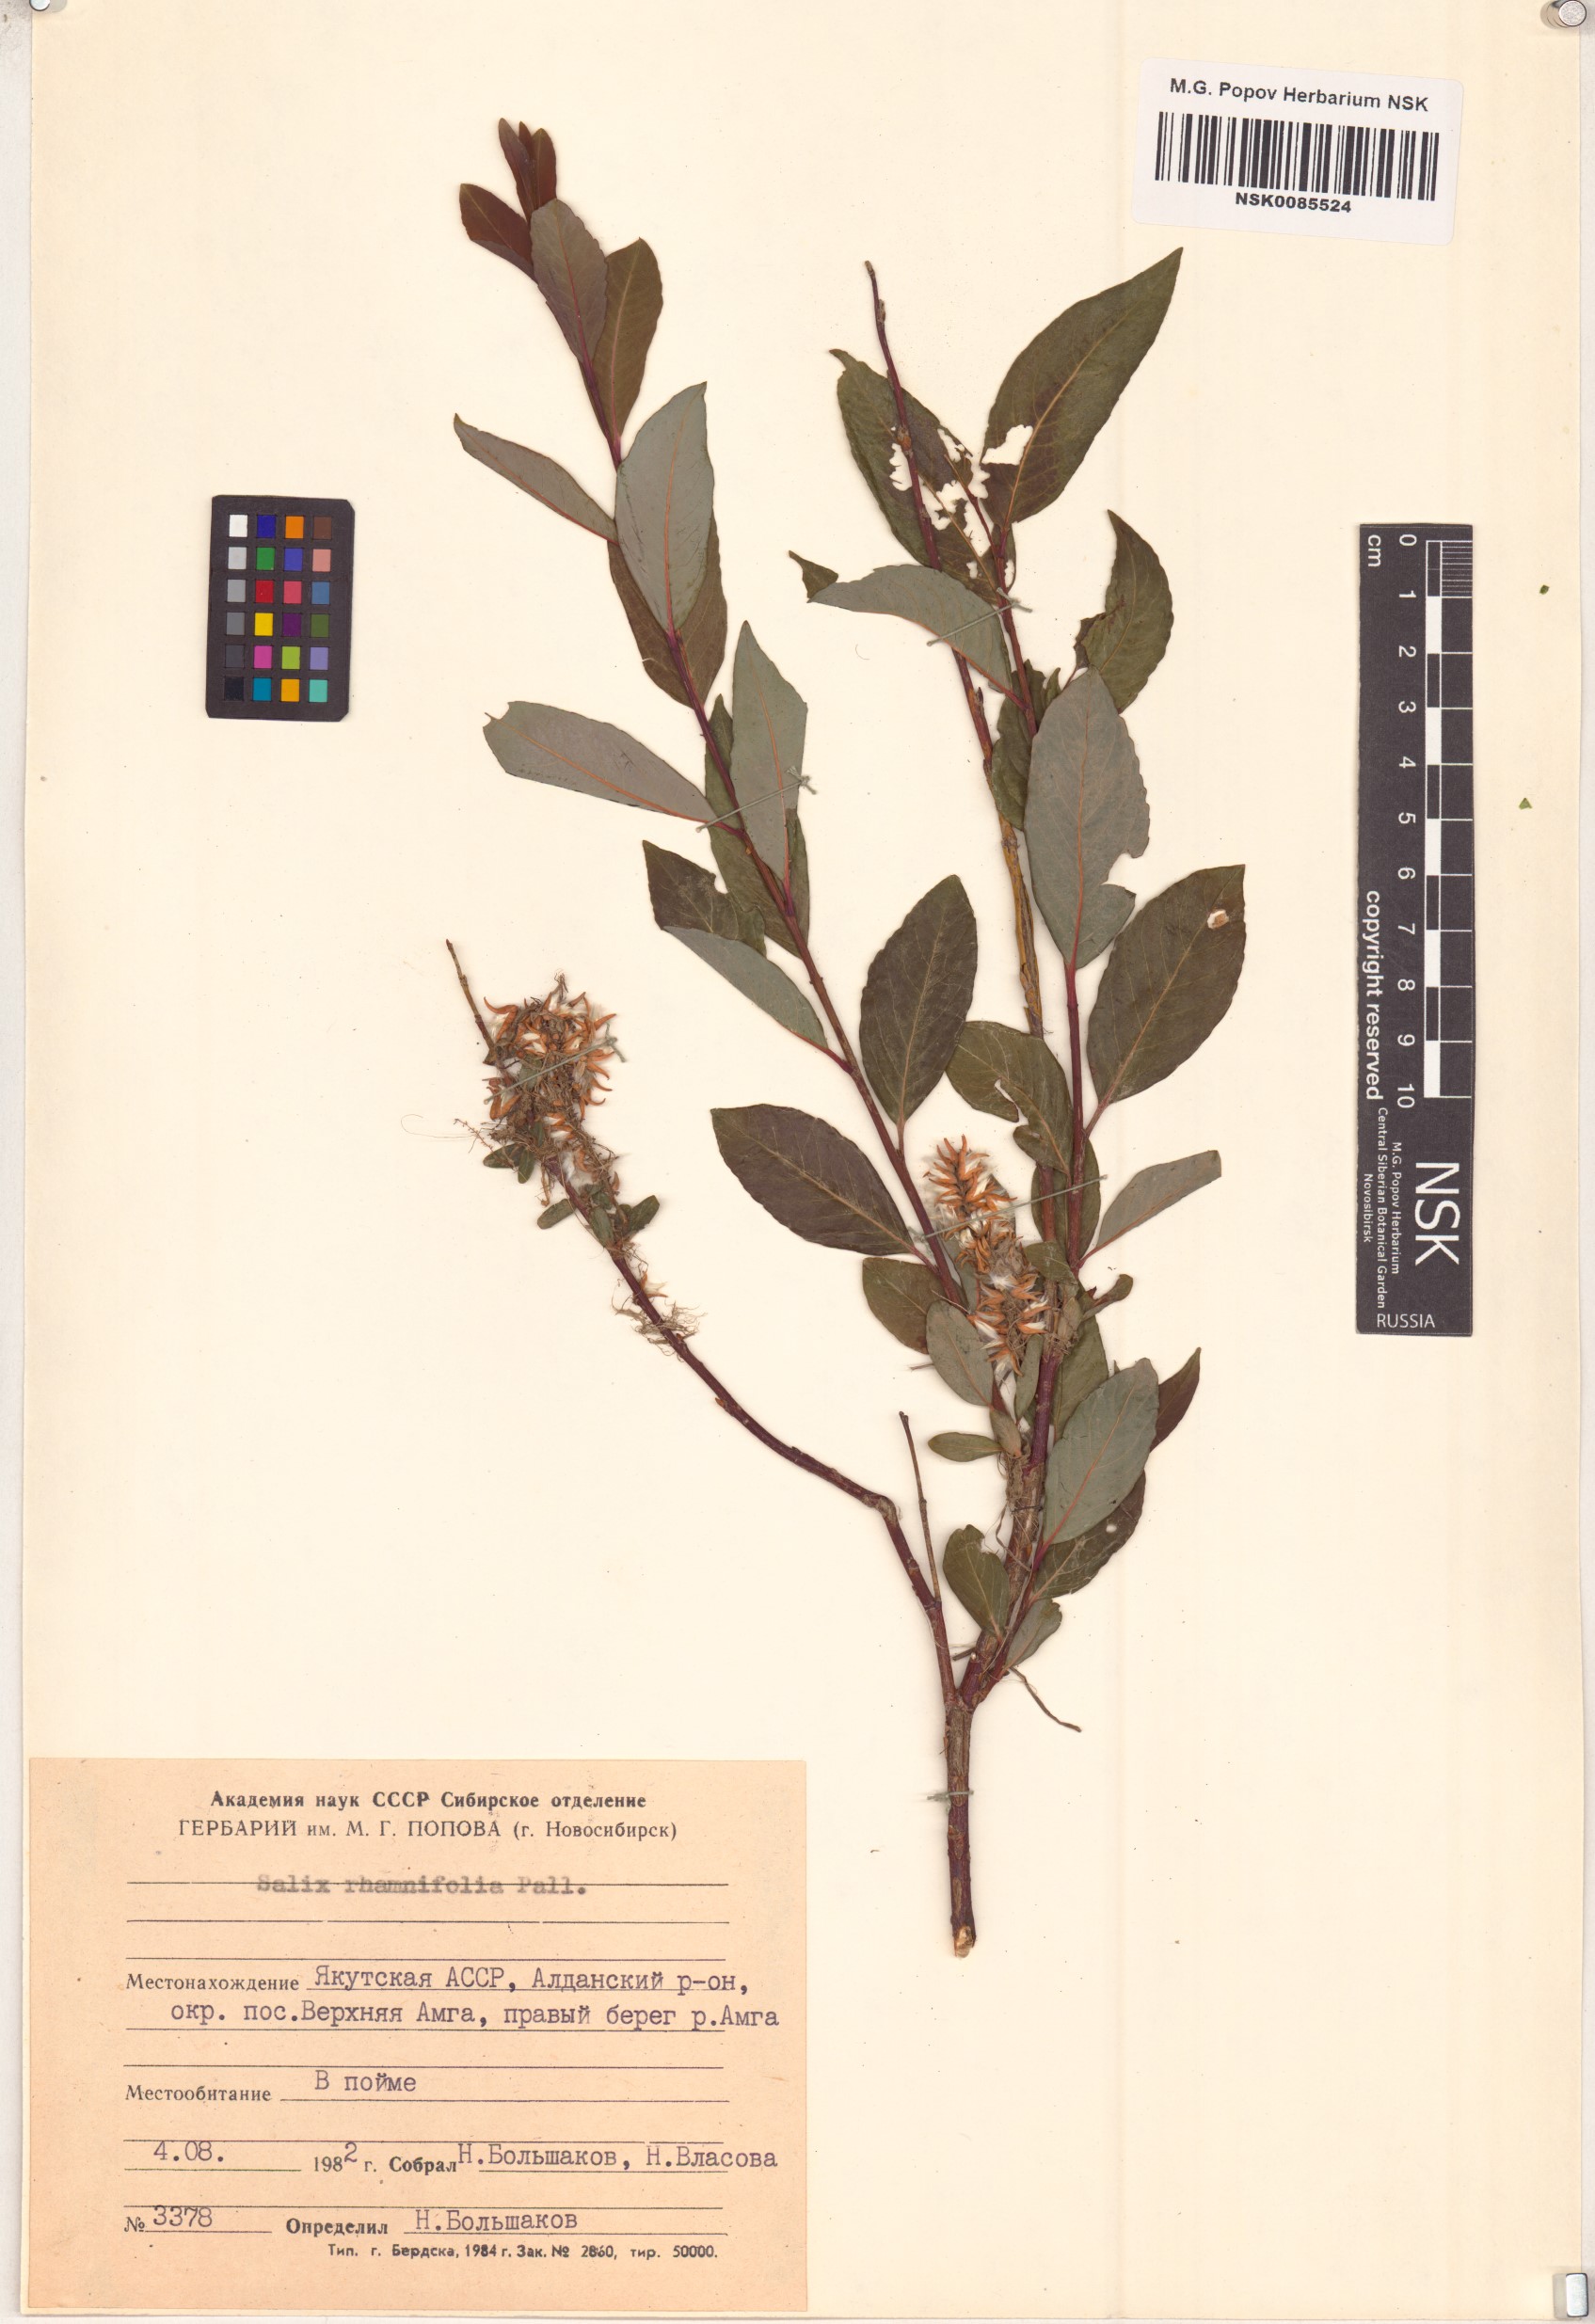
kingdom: Plantae
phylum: Tracheophyta
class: Magnoliopsida
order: Malpighiales
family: Salicaceae
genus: Salix
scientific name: Salix rhamnifolia
